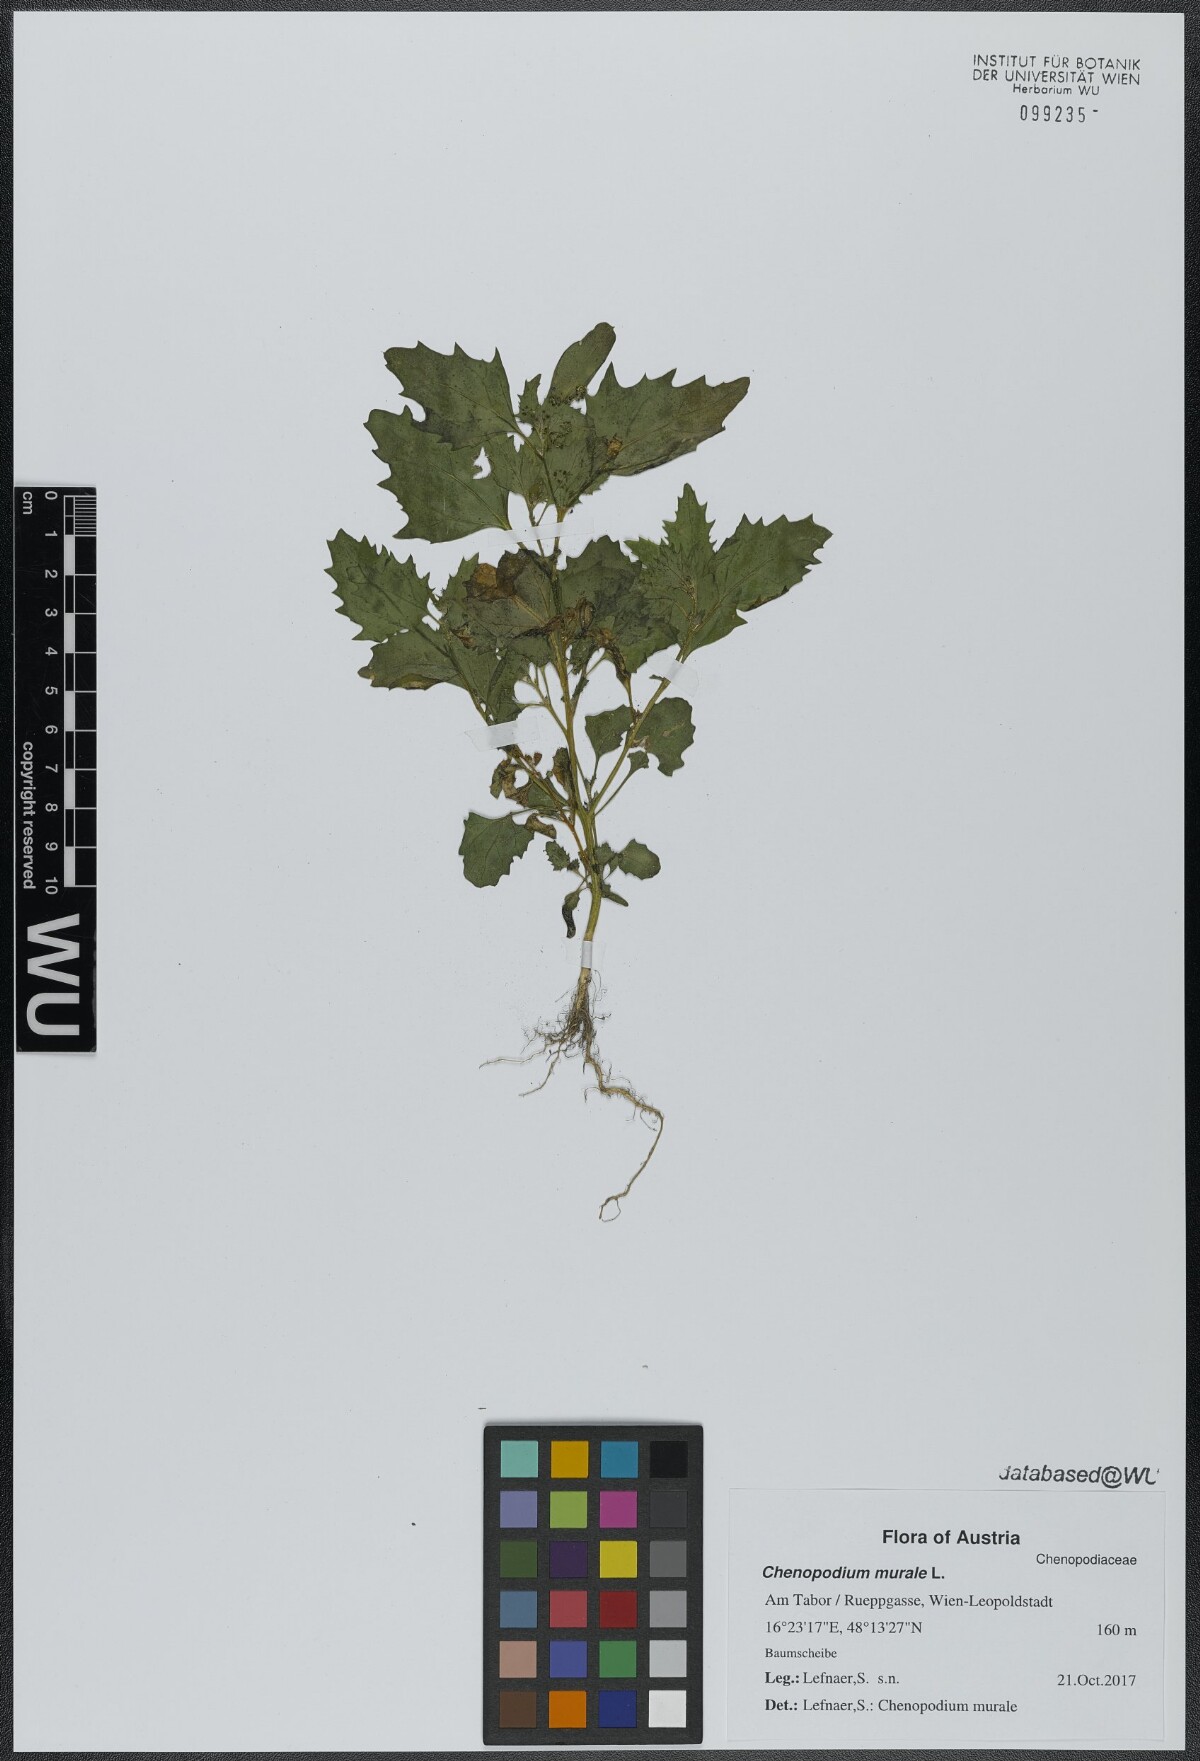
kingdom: Plantae
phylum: Tracheophyta
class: Magnoliopsida
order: Caryophyllales
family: Amaranthaceae
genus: Chenopodiastrum
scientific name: Chenopodiastrum murale
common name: Sowbane
